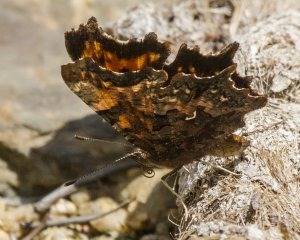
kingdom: Animalia
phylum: Arthropoda
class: Insecta
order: Lepidoptera
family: Nymphalidae
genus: Polygonia
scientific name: Polygonia faunus
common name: Green Comma
